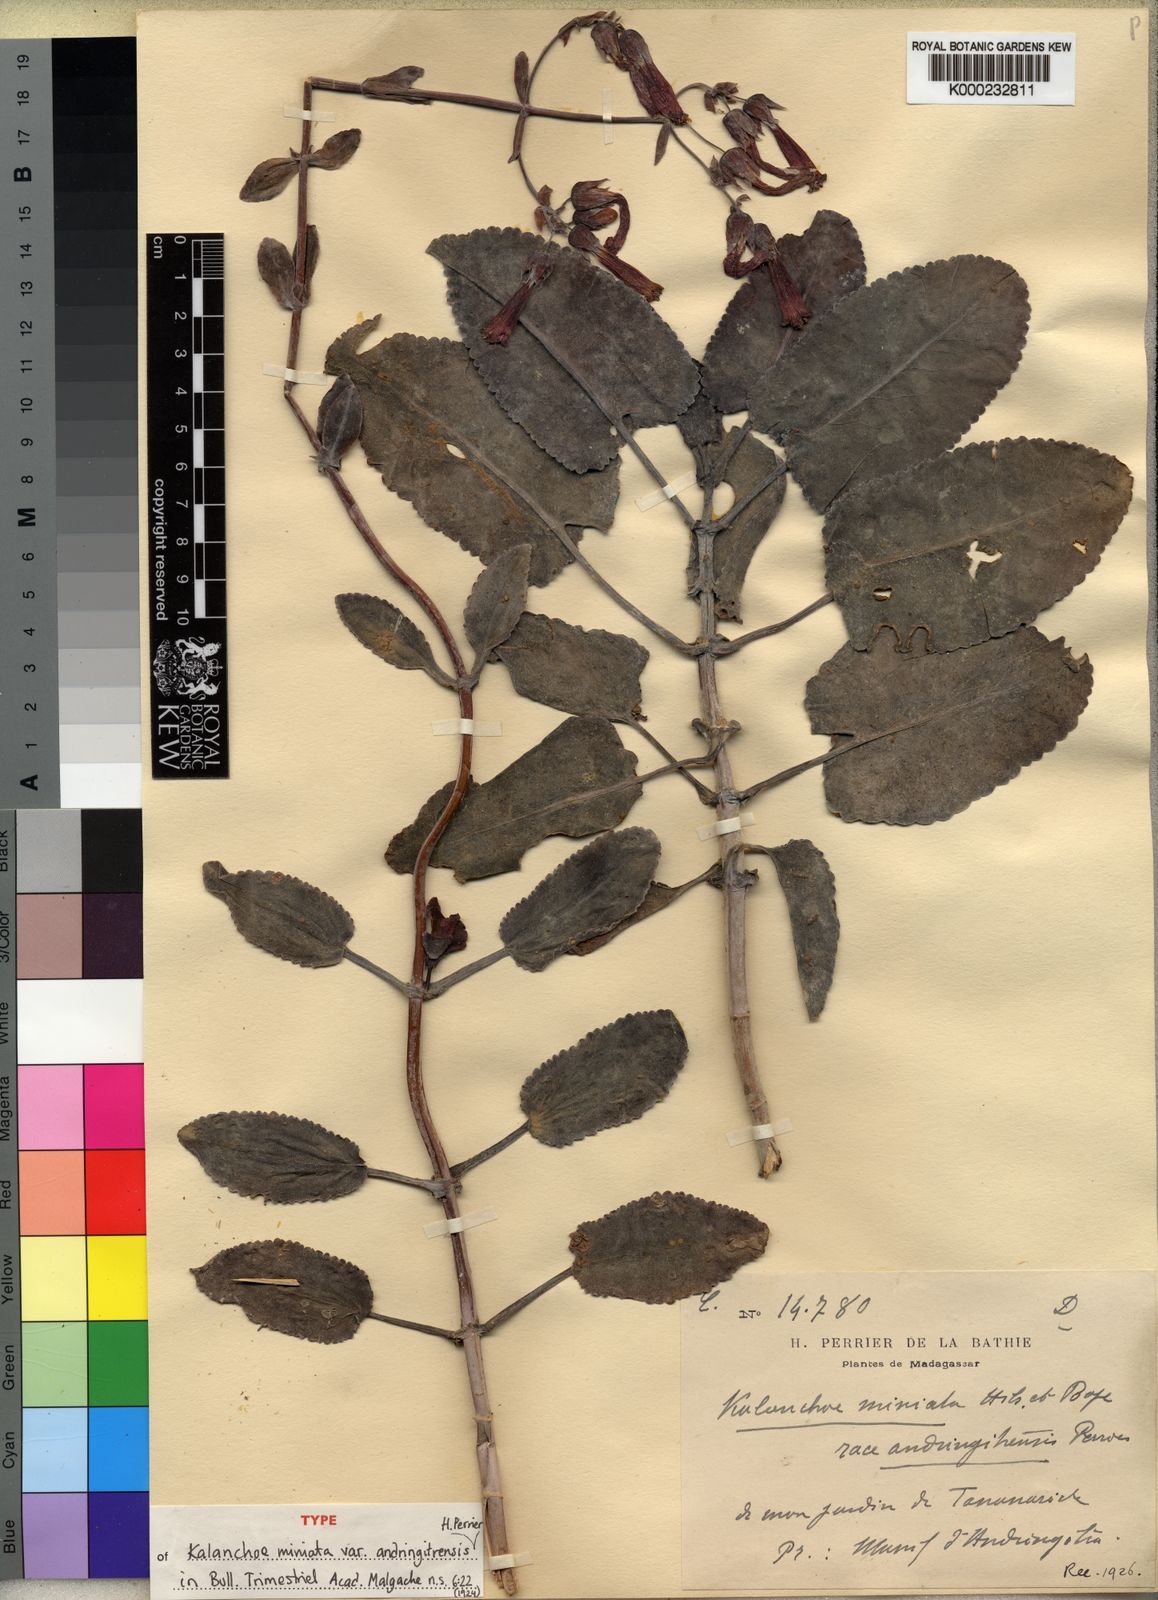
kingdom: Chromista
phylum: Ciliophora
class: Gymnostomatea
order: Spathidiida
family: Spathidiidae
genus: Bryophyllum
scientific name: Bryophyllum
